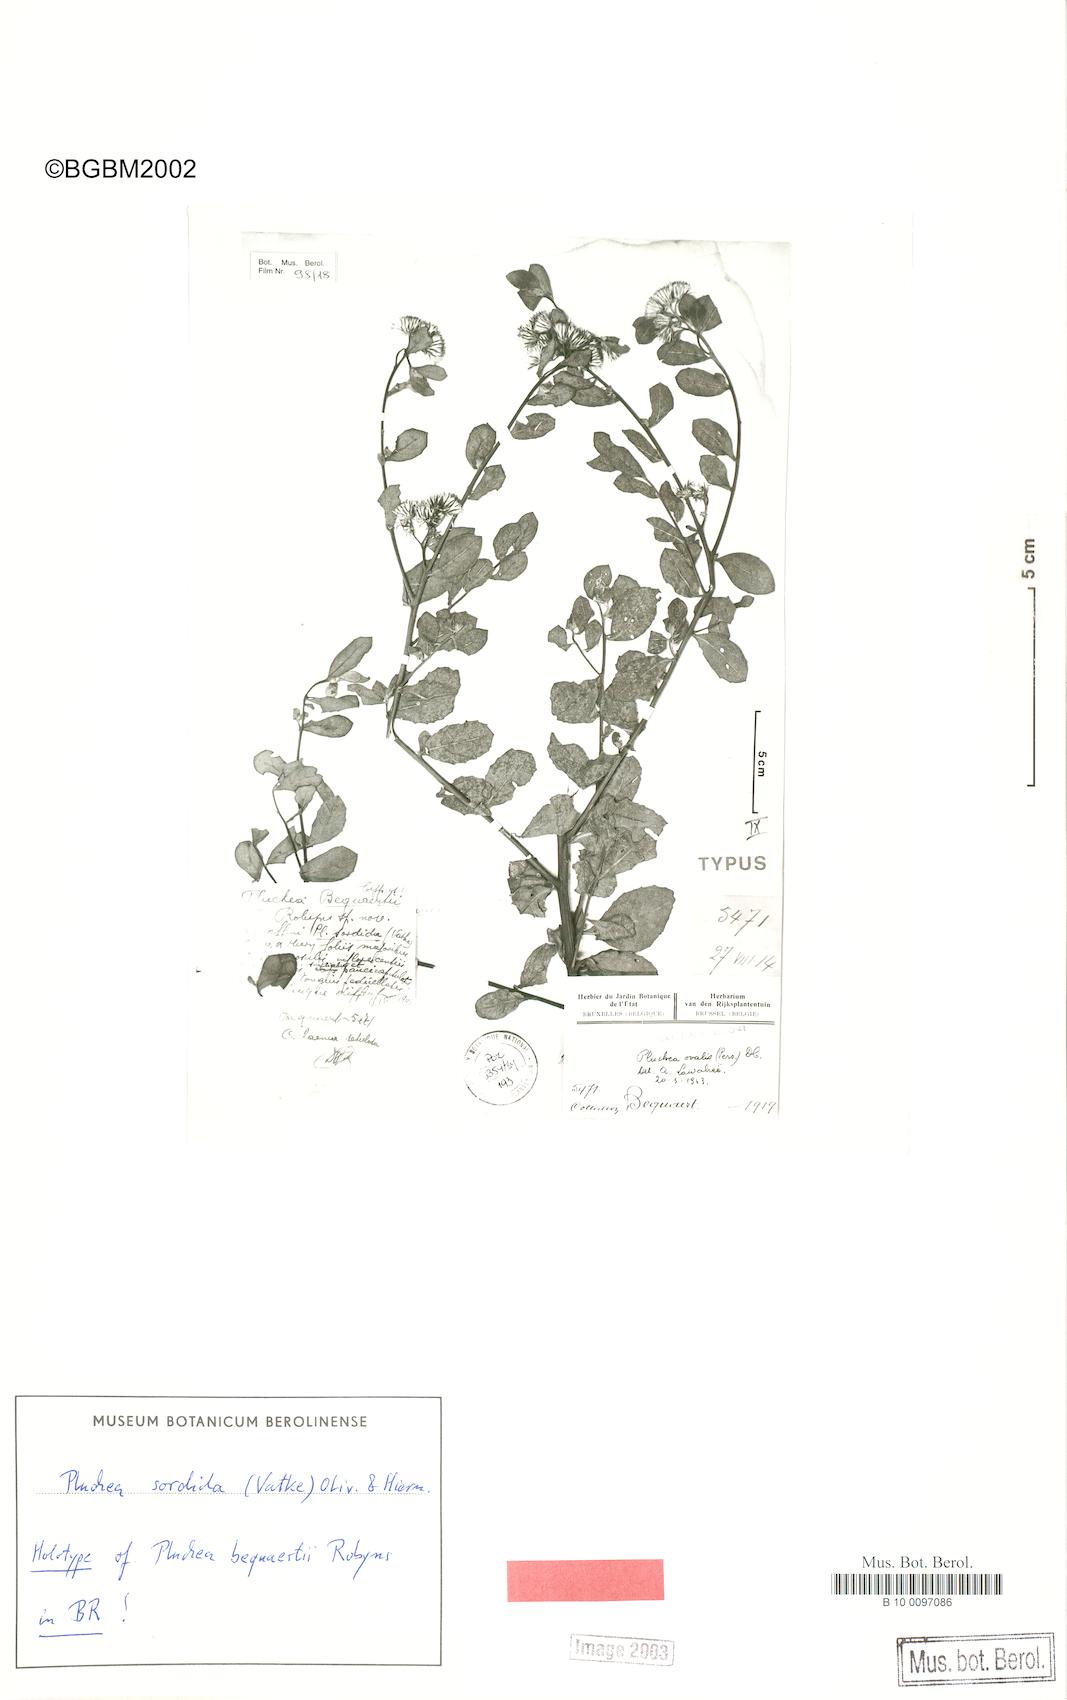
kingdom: Plantae
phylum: Tracheophyta
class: Magnoliopsida
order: Asterales
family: Asteraceae
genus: Pluchea
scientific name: Pluchea sordida
